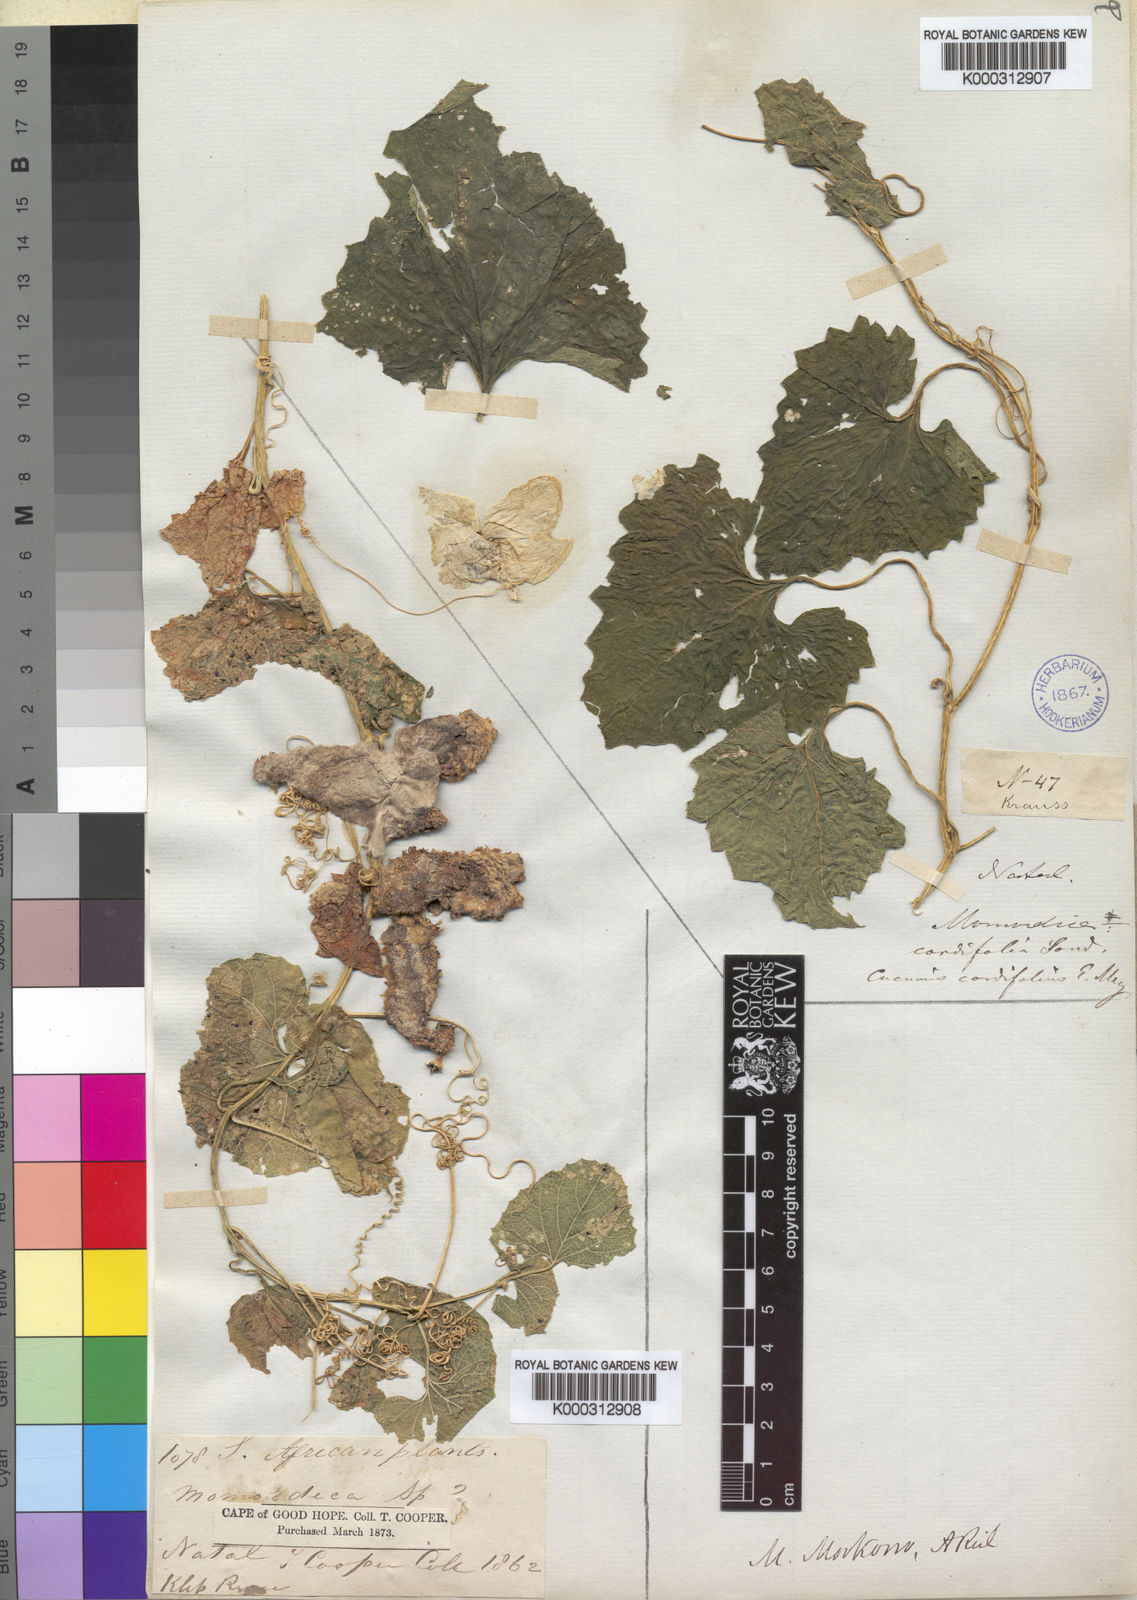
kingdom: Plantae
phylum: Tracheophyta
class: Magnoliopsida
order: Cucurbitales
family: Cucurbitaceae
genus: Momordica
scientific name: Momordica foetida
